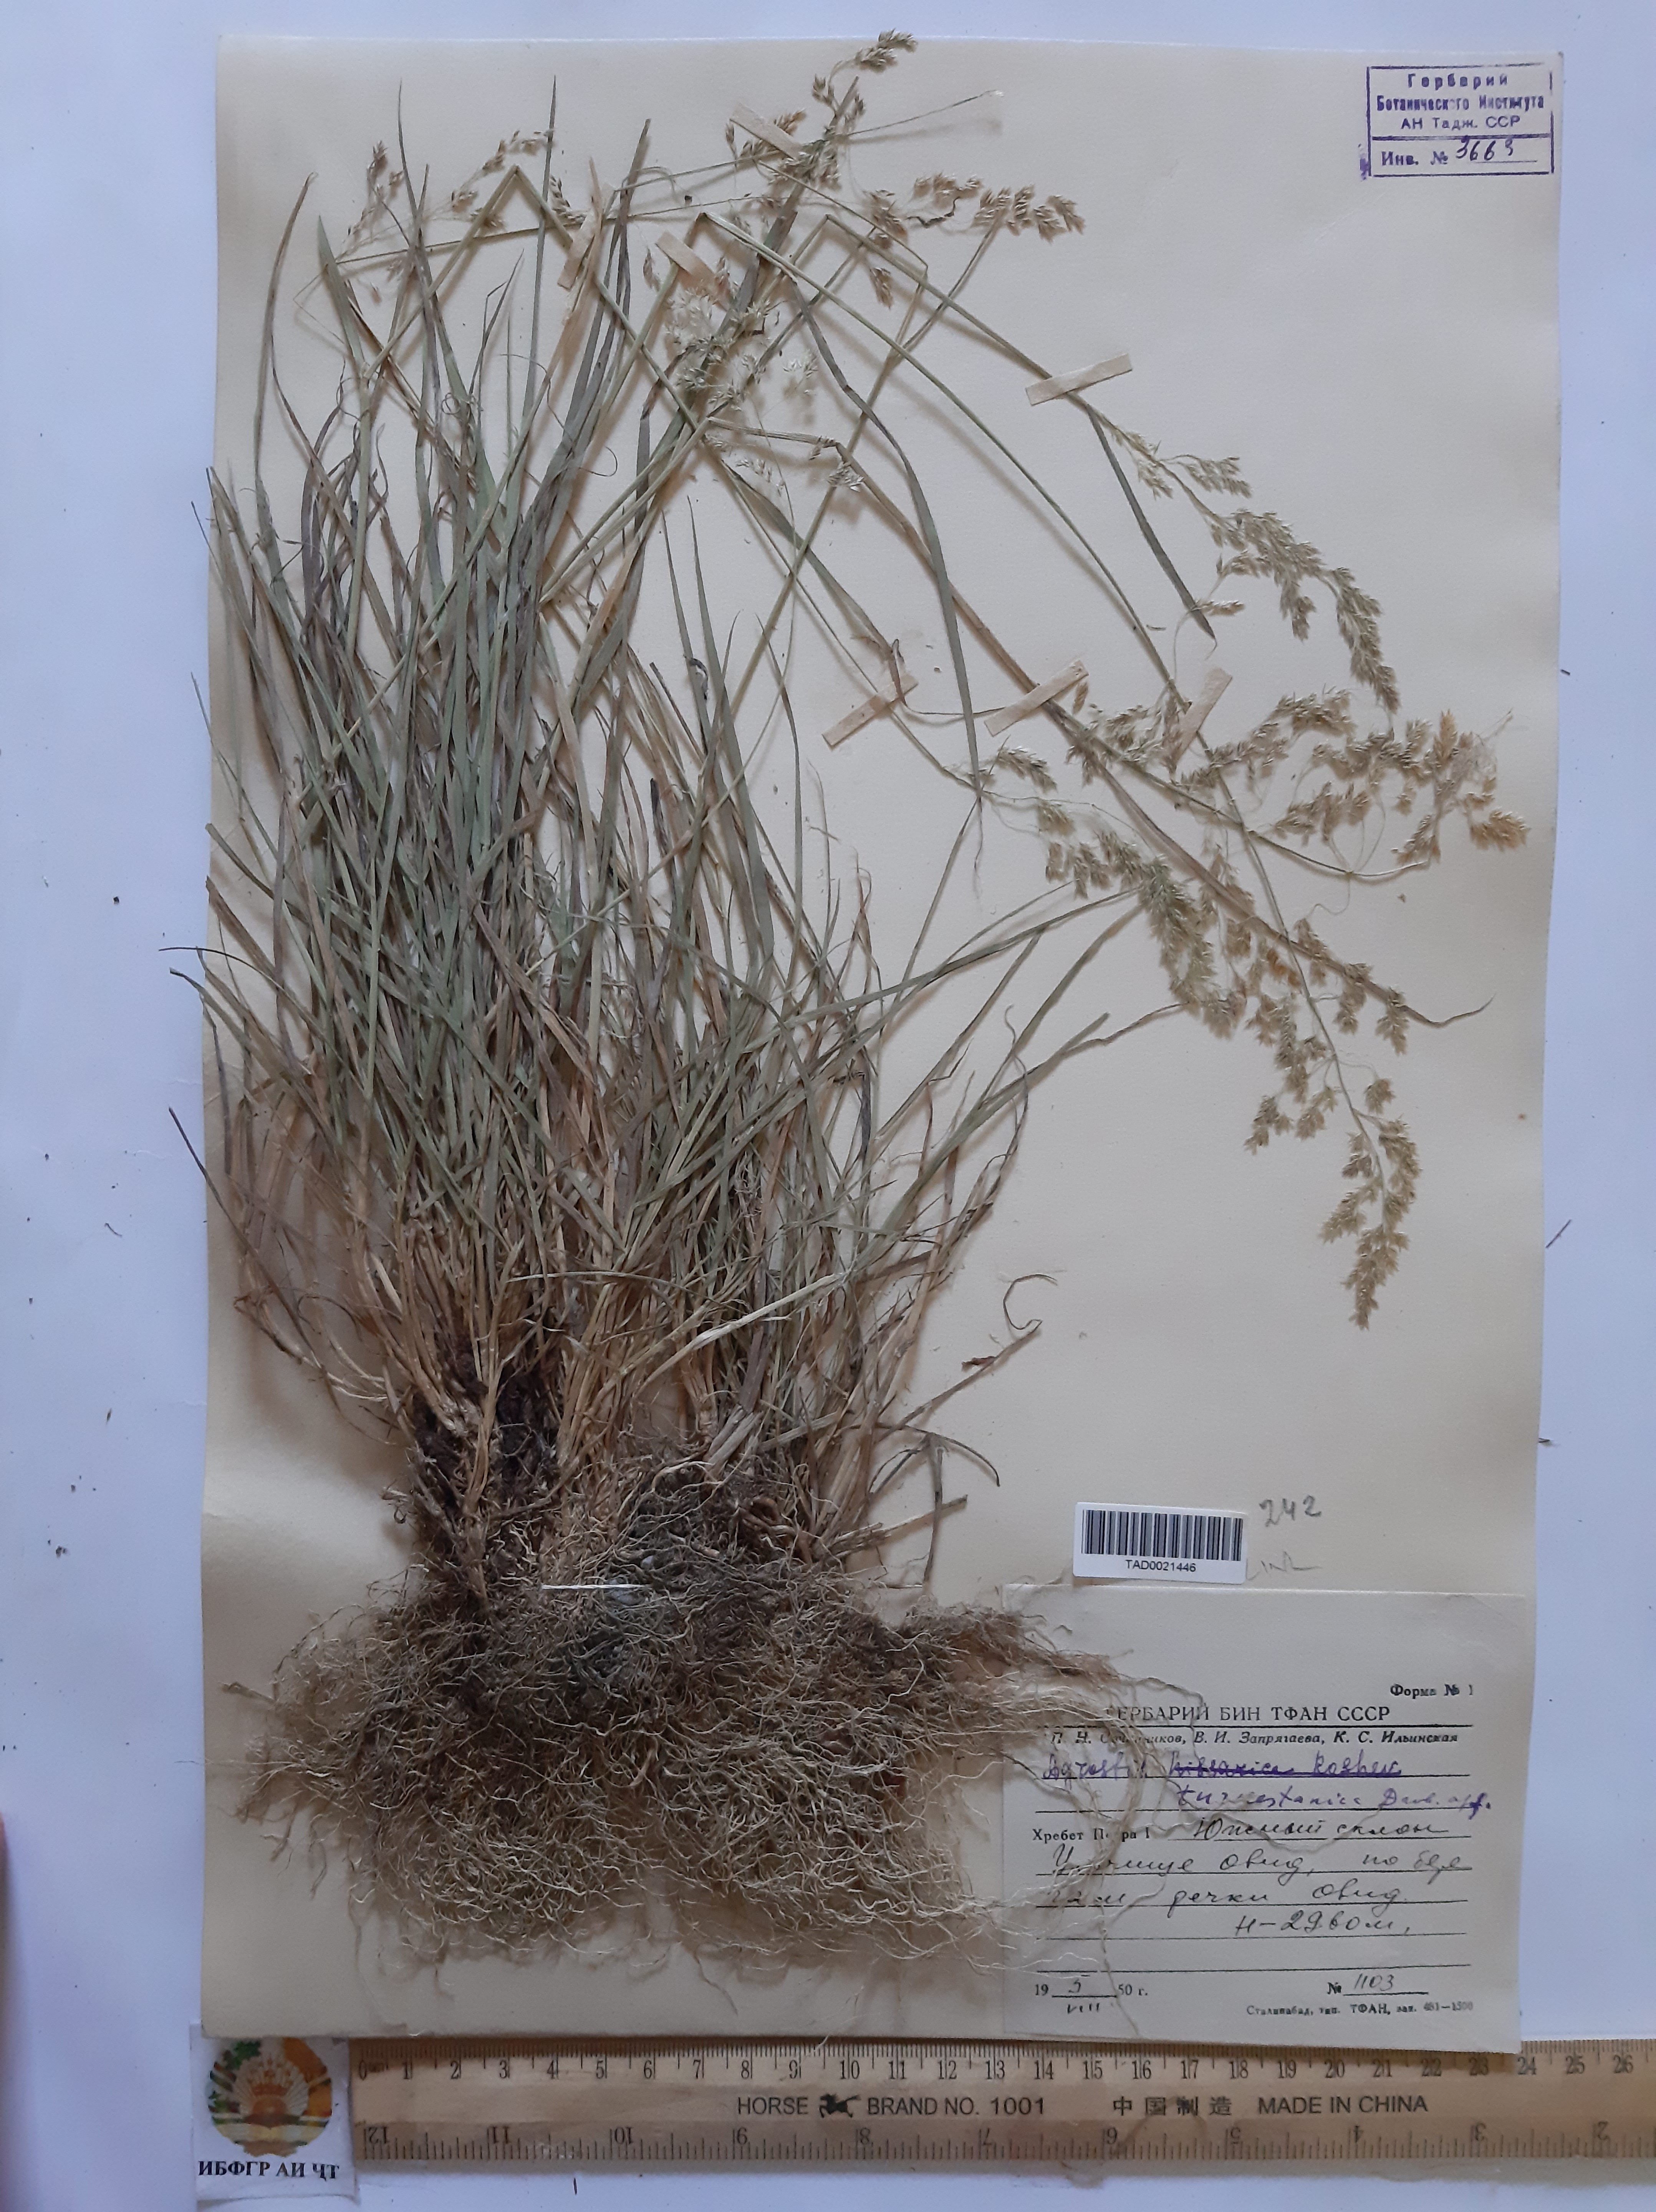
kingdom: Plantae
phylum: Tracheophyta
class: Liliopsida
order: Poales
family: Poaceae
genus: Agrostis
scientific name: Agrostis vinealis
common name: Brown bent
